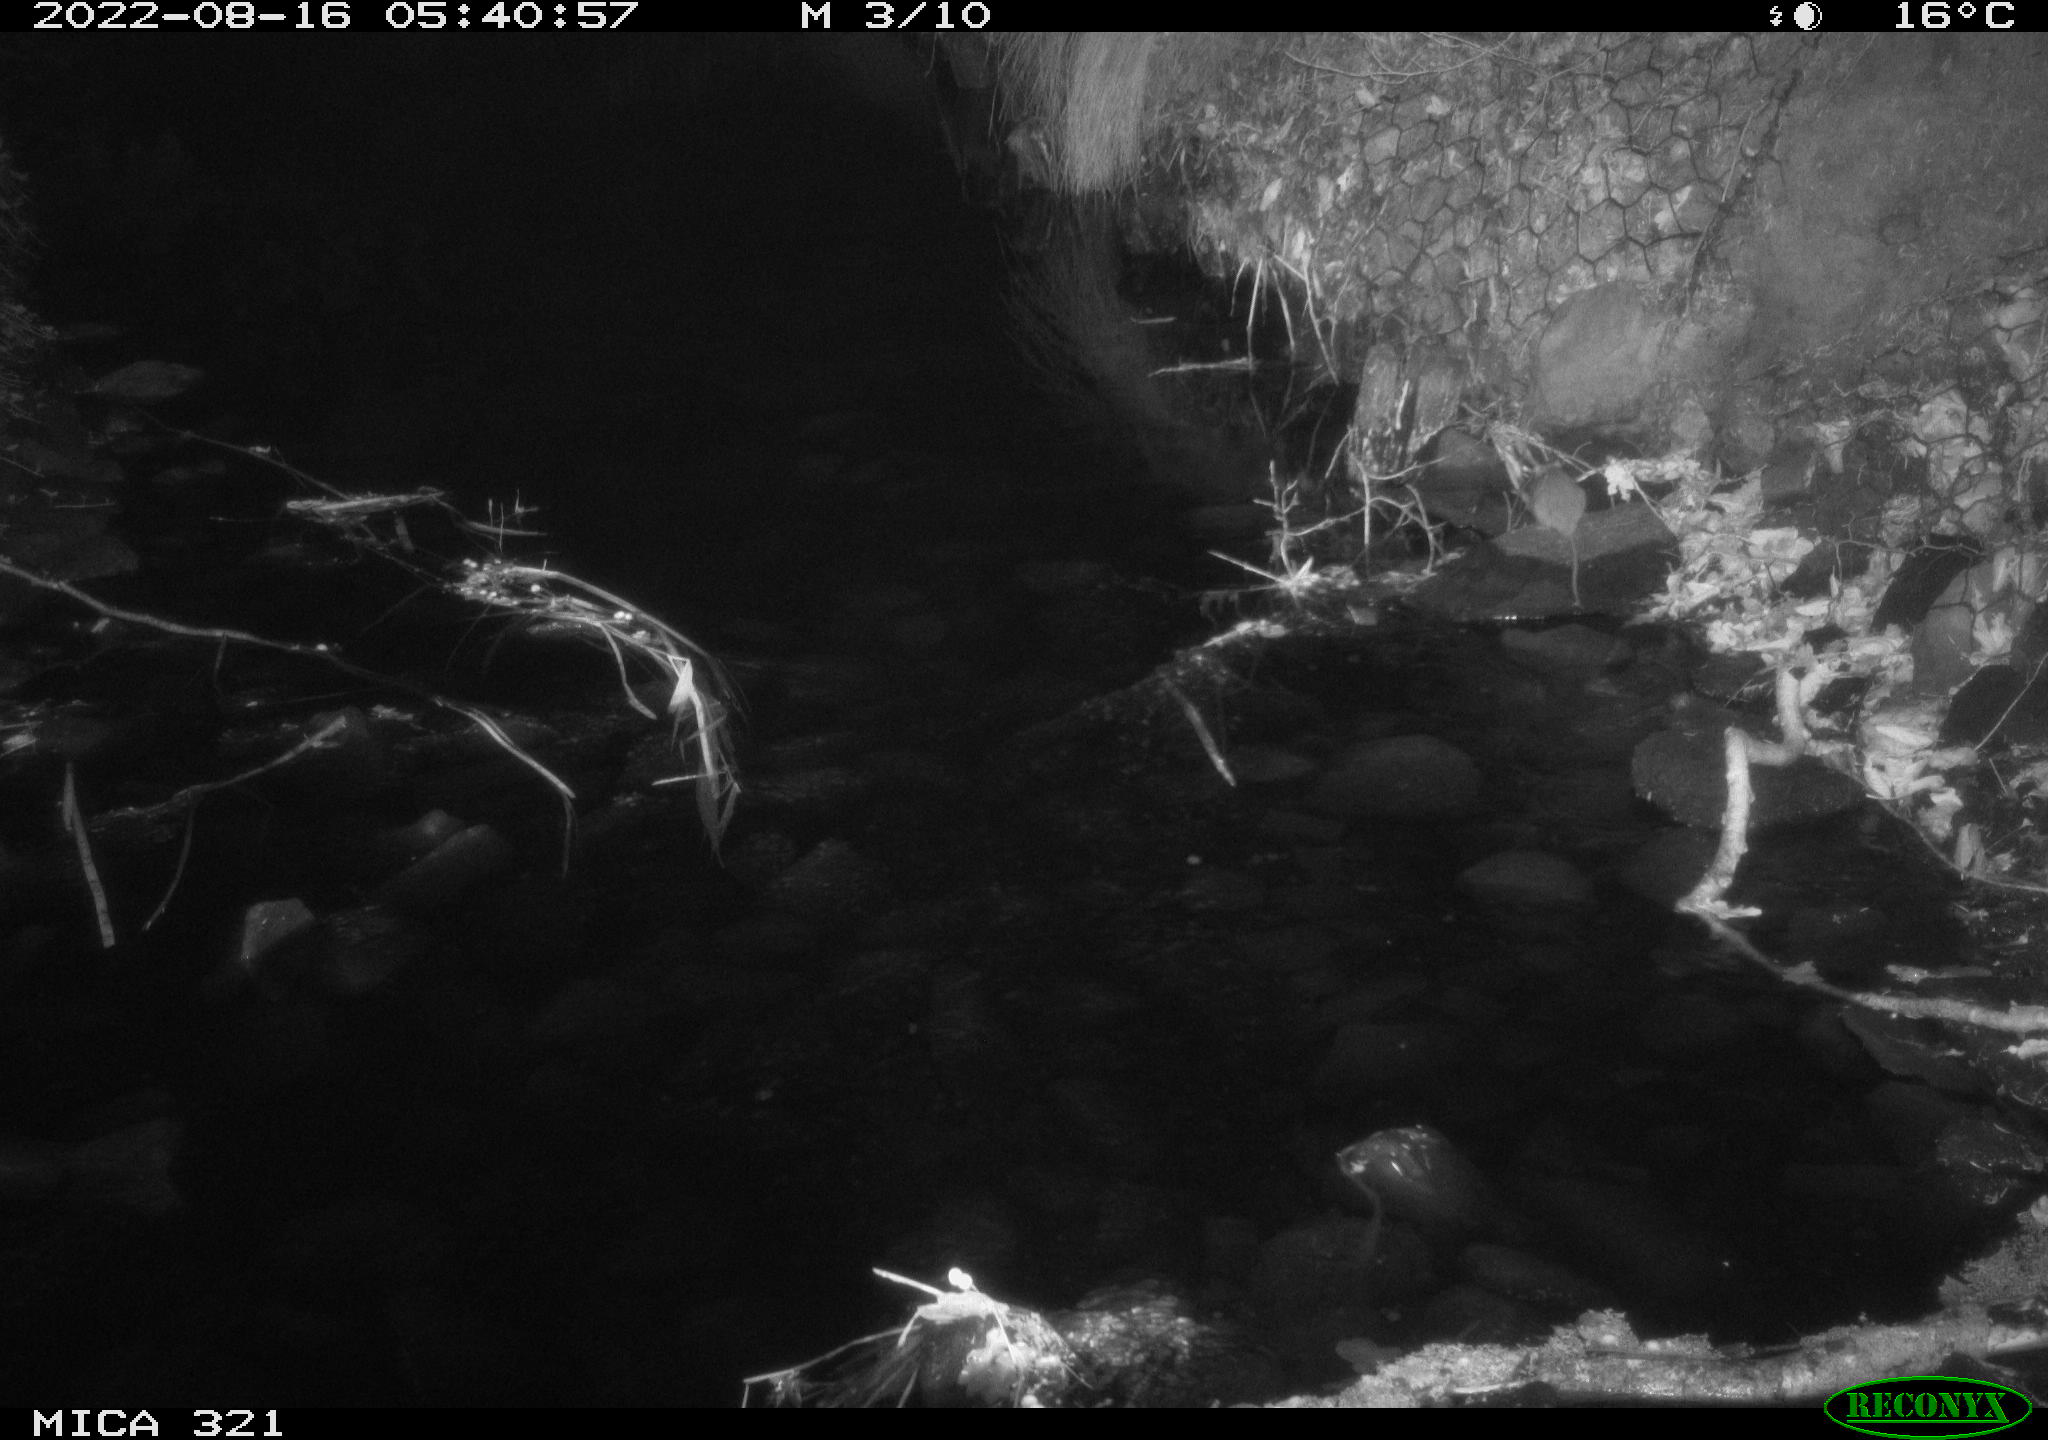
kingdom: Animalia
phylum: Chordata
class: Mammalia
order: Rodentia
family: Muridae
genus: Rattus
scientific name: Rattus norvegicus
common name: Brown rat
